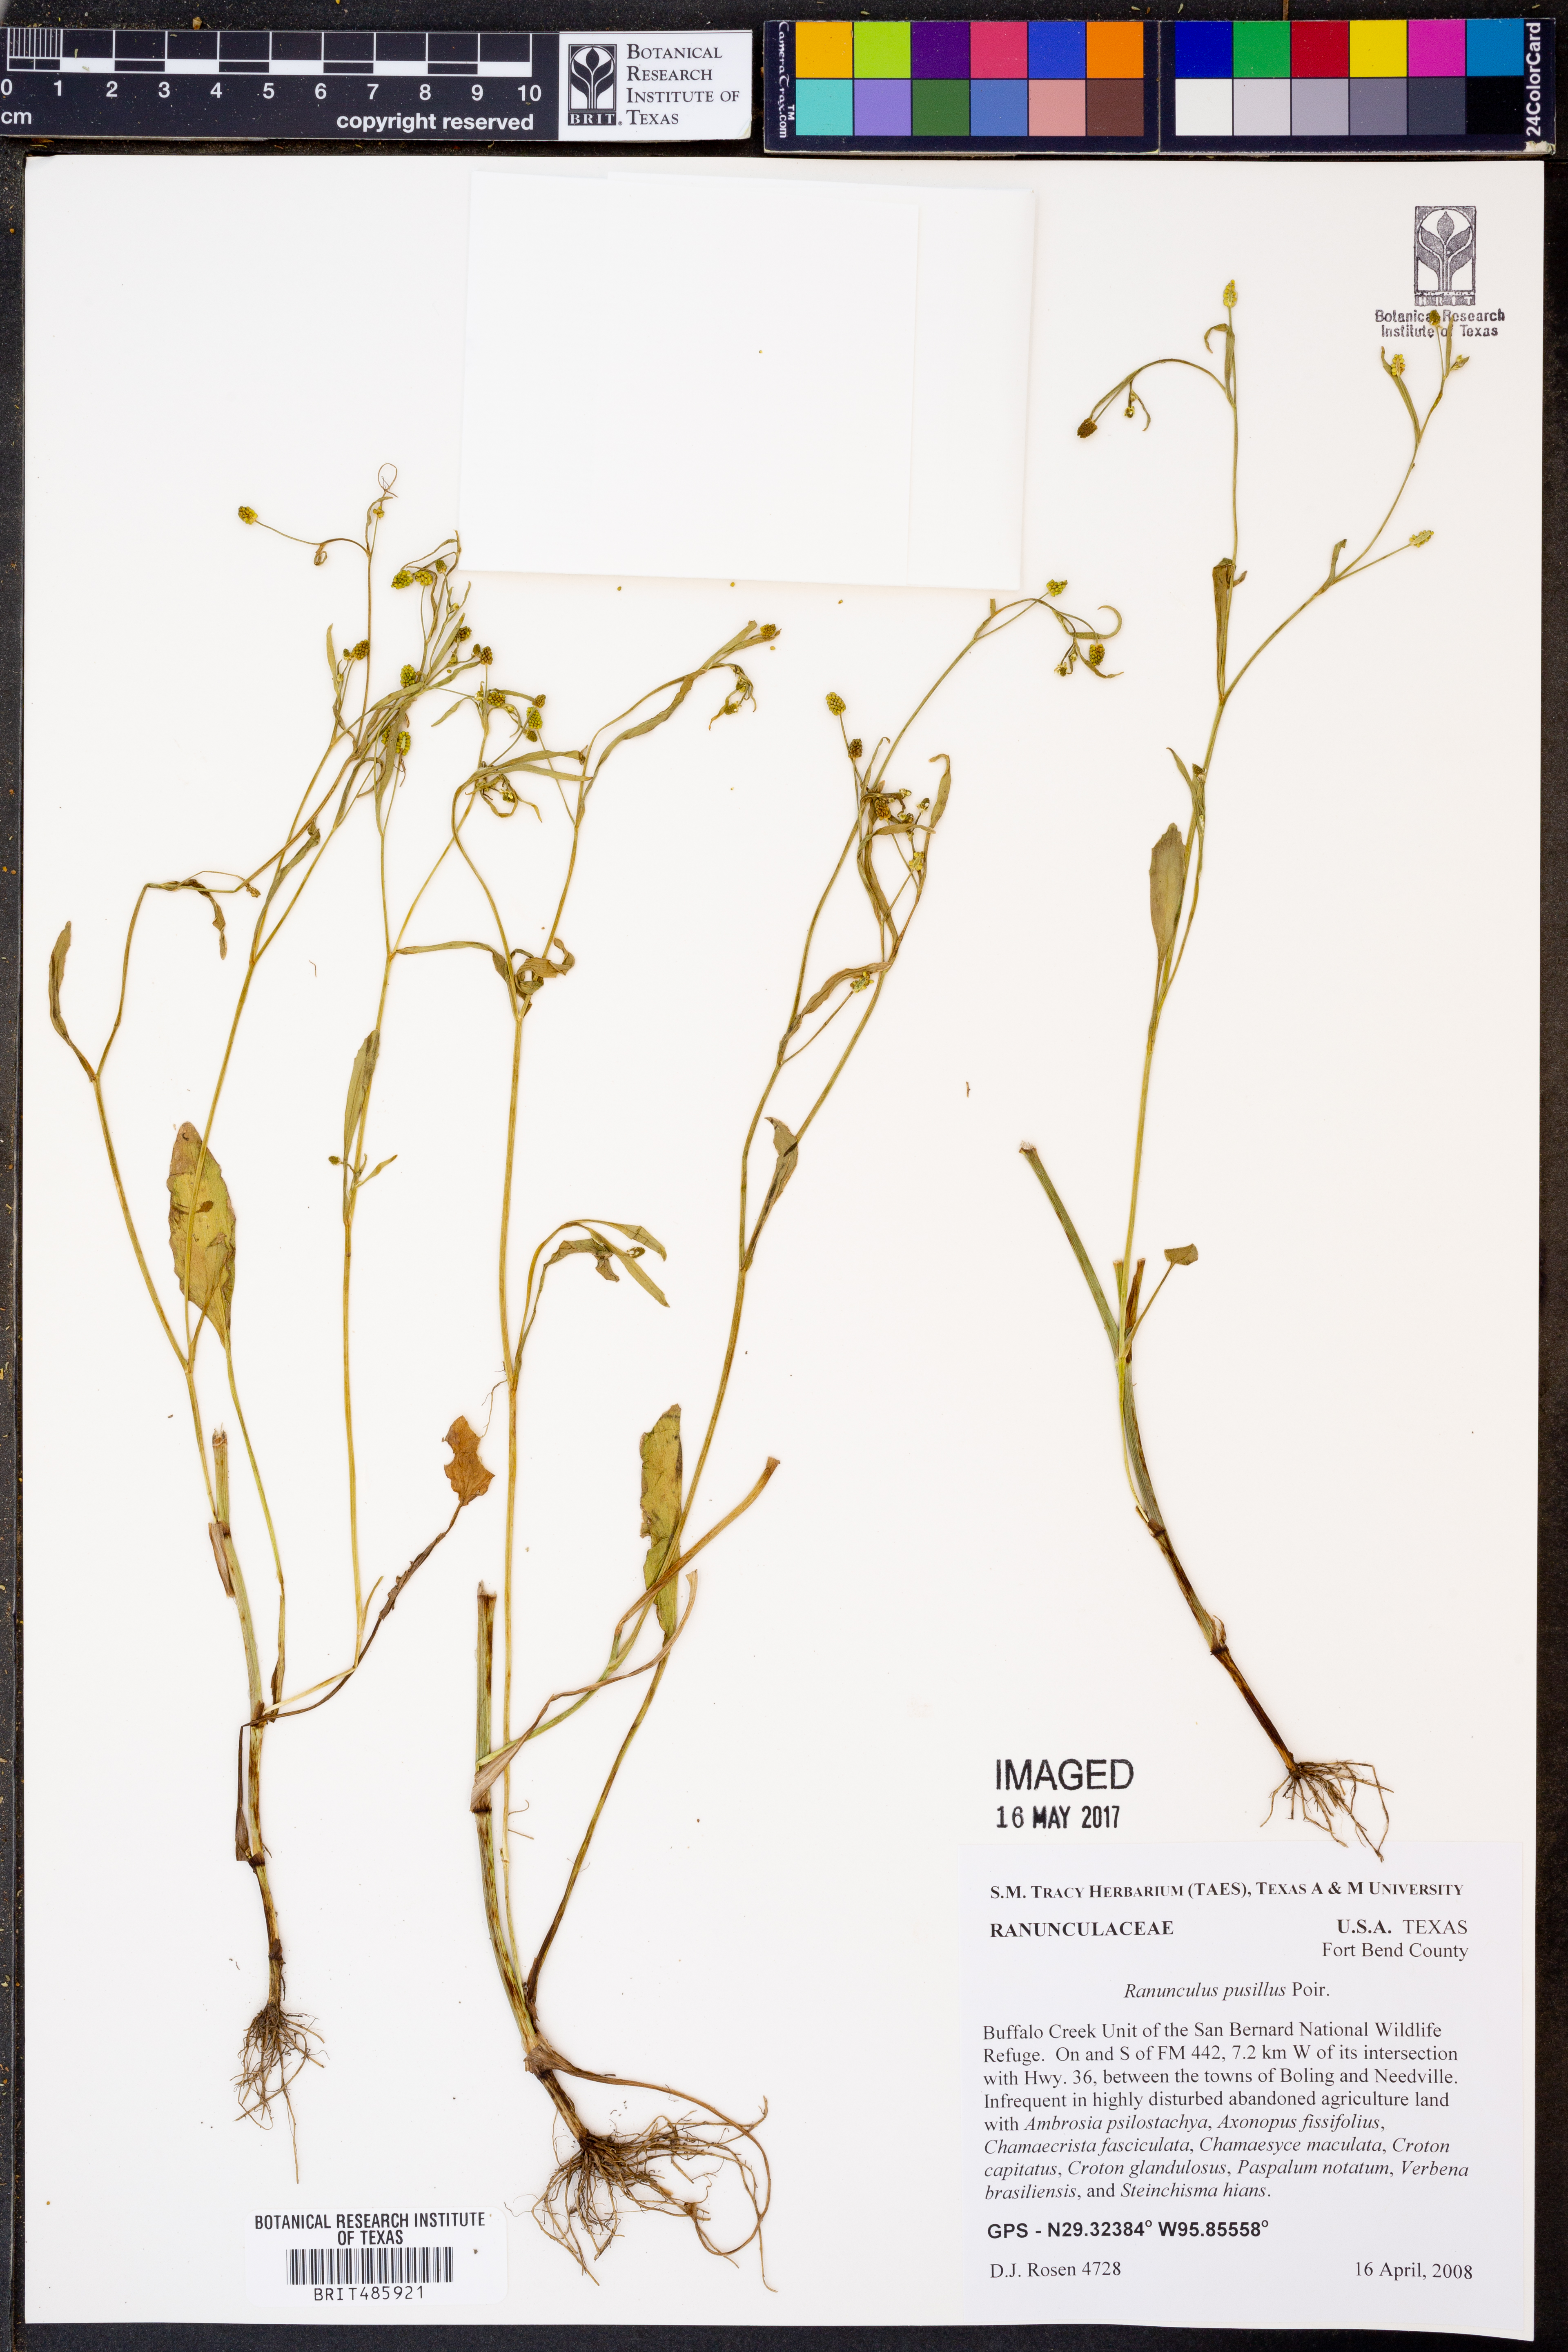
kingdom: Plantae
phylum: Tracheophyta
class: Magnoliopsida
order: Ranunculales
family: Ranunculaceae
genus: Ranunculus
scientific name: Ranunculus pusillus
